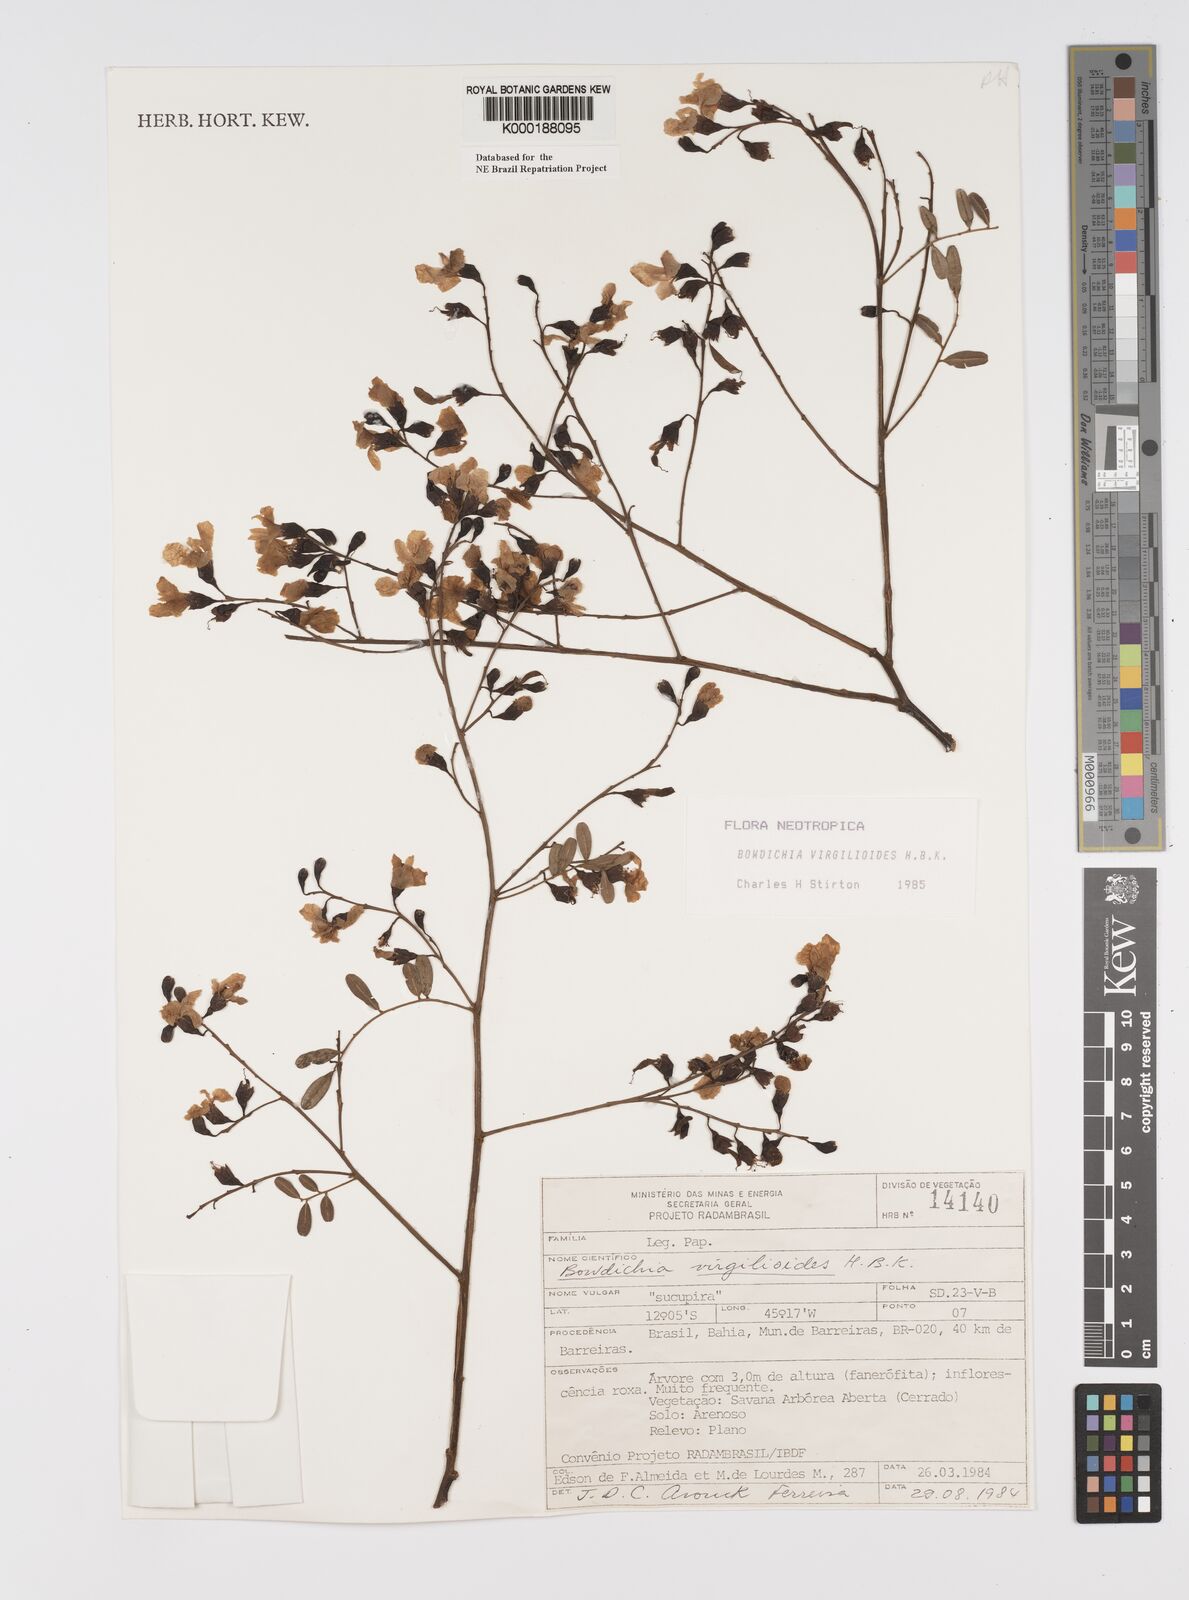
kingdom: Plantae
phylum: Tracheophyta
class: Magnoliopsida
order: Fabales
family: Fabaceae
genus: Bowdichia
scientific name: Bowdichia virgilioides
